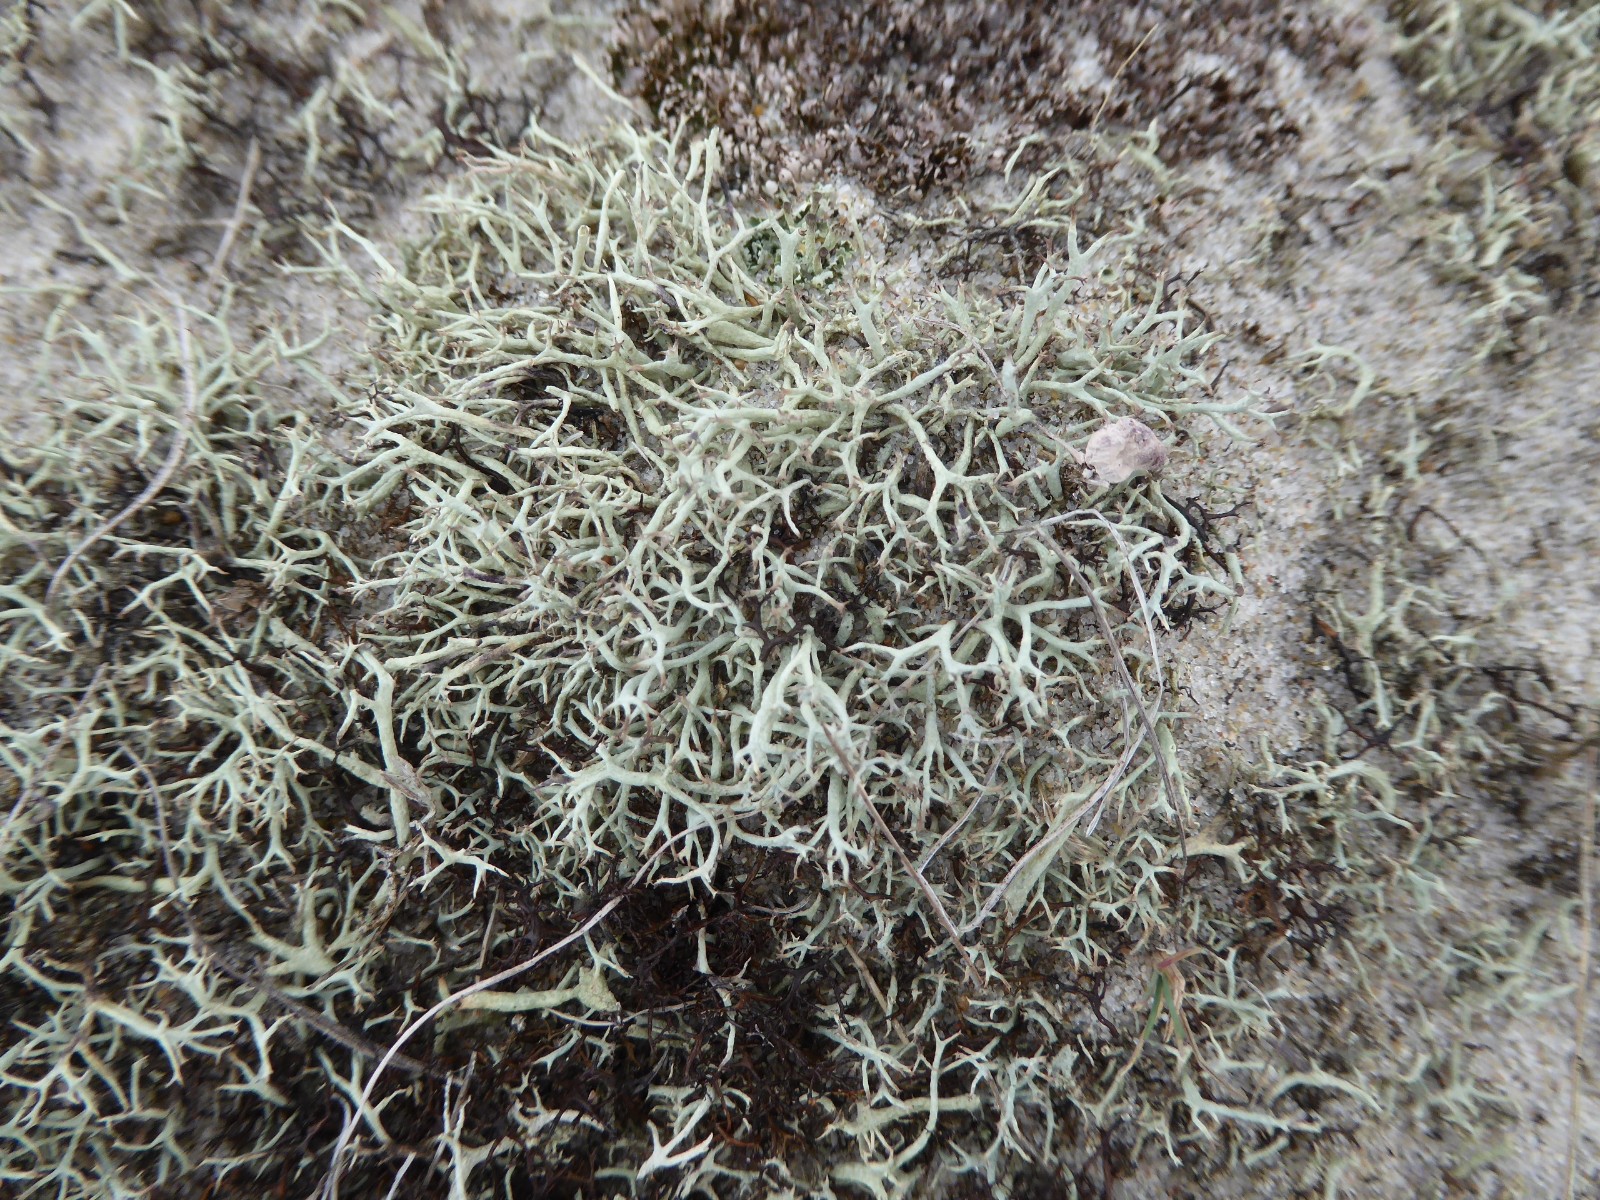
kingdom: Fungi
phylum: Ascomycota
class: Lecanoromycetes
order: Lecanorales
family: Cladoniaceae
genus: Cladonia
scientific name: Cladonia zopfii
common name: klit-bægerlav
